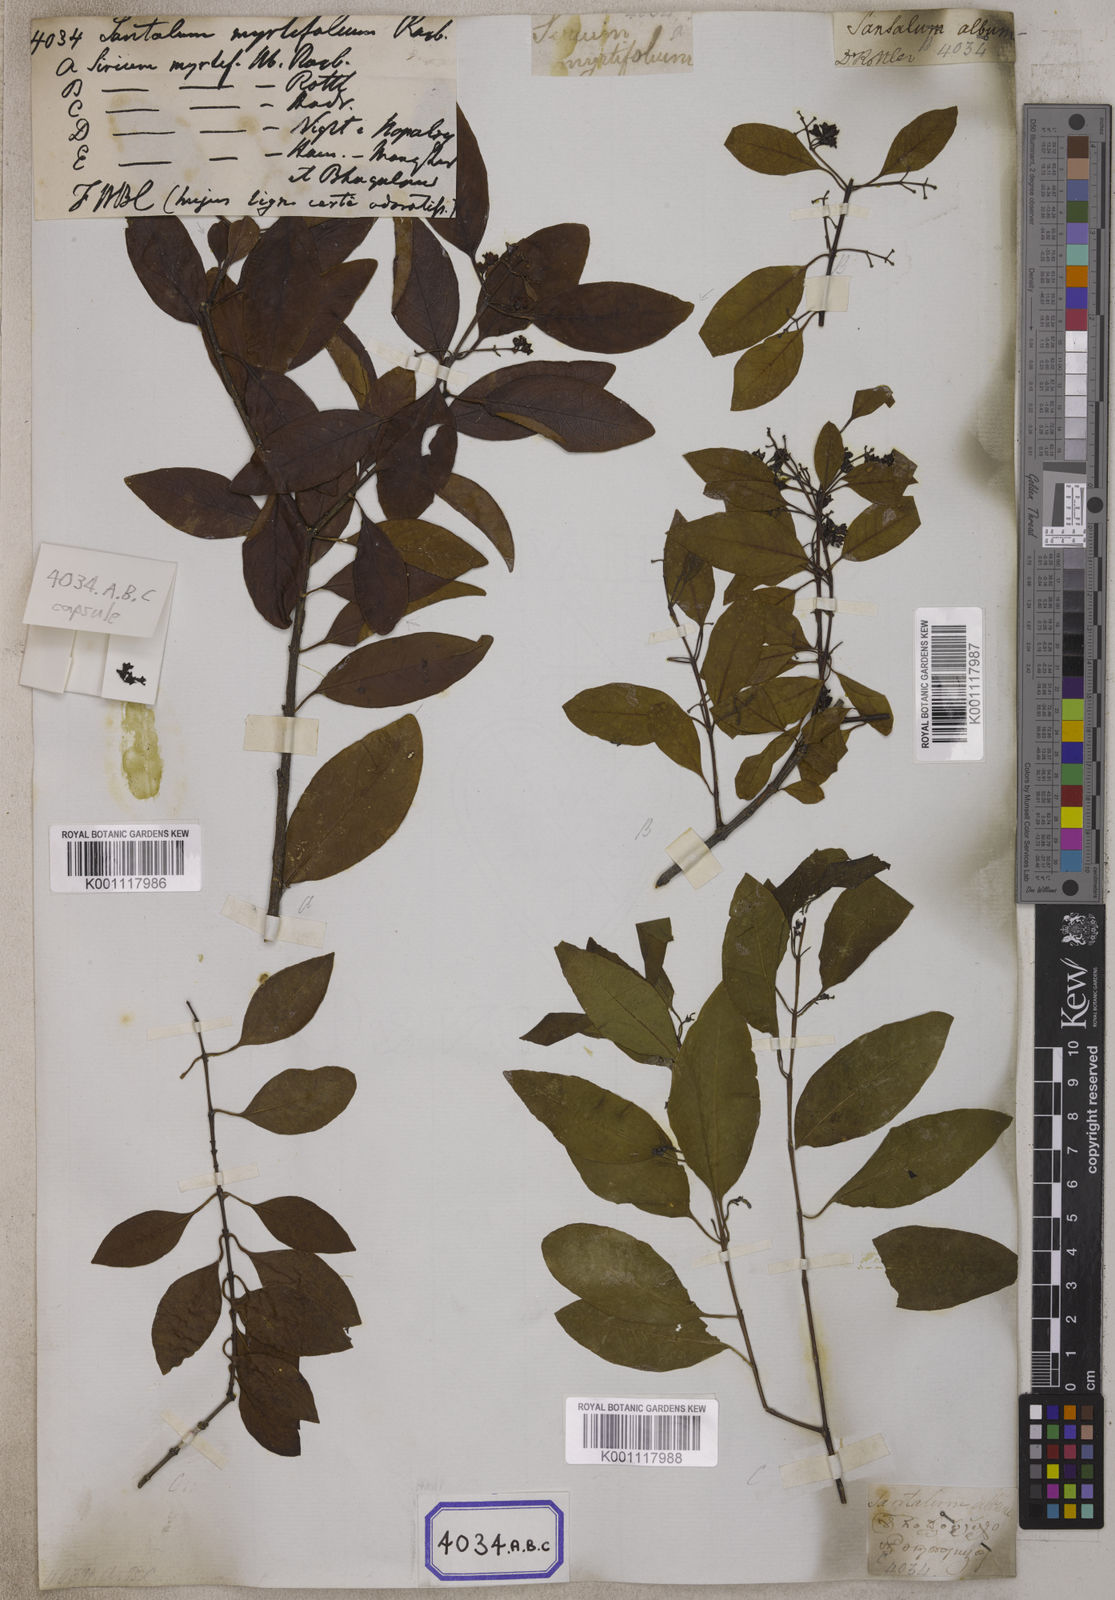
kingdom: Plantae
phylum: Tracheophyta
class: Magnoliopsida
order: Santalales
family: Santalaceae
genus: Santalum
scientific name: Santalum album
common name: Indian sandalwood
